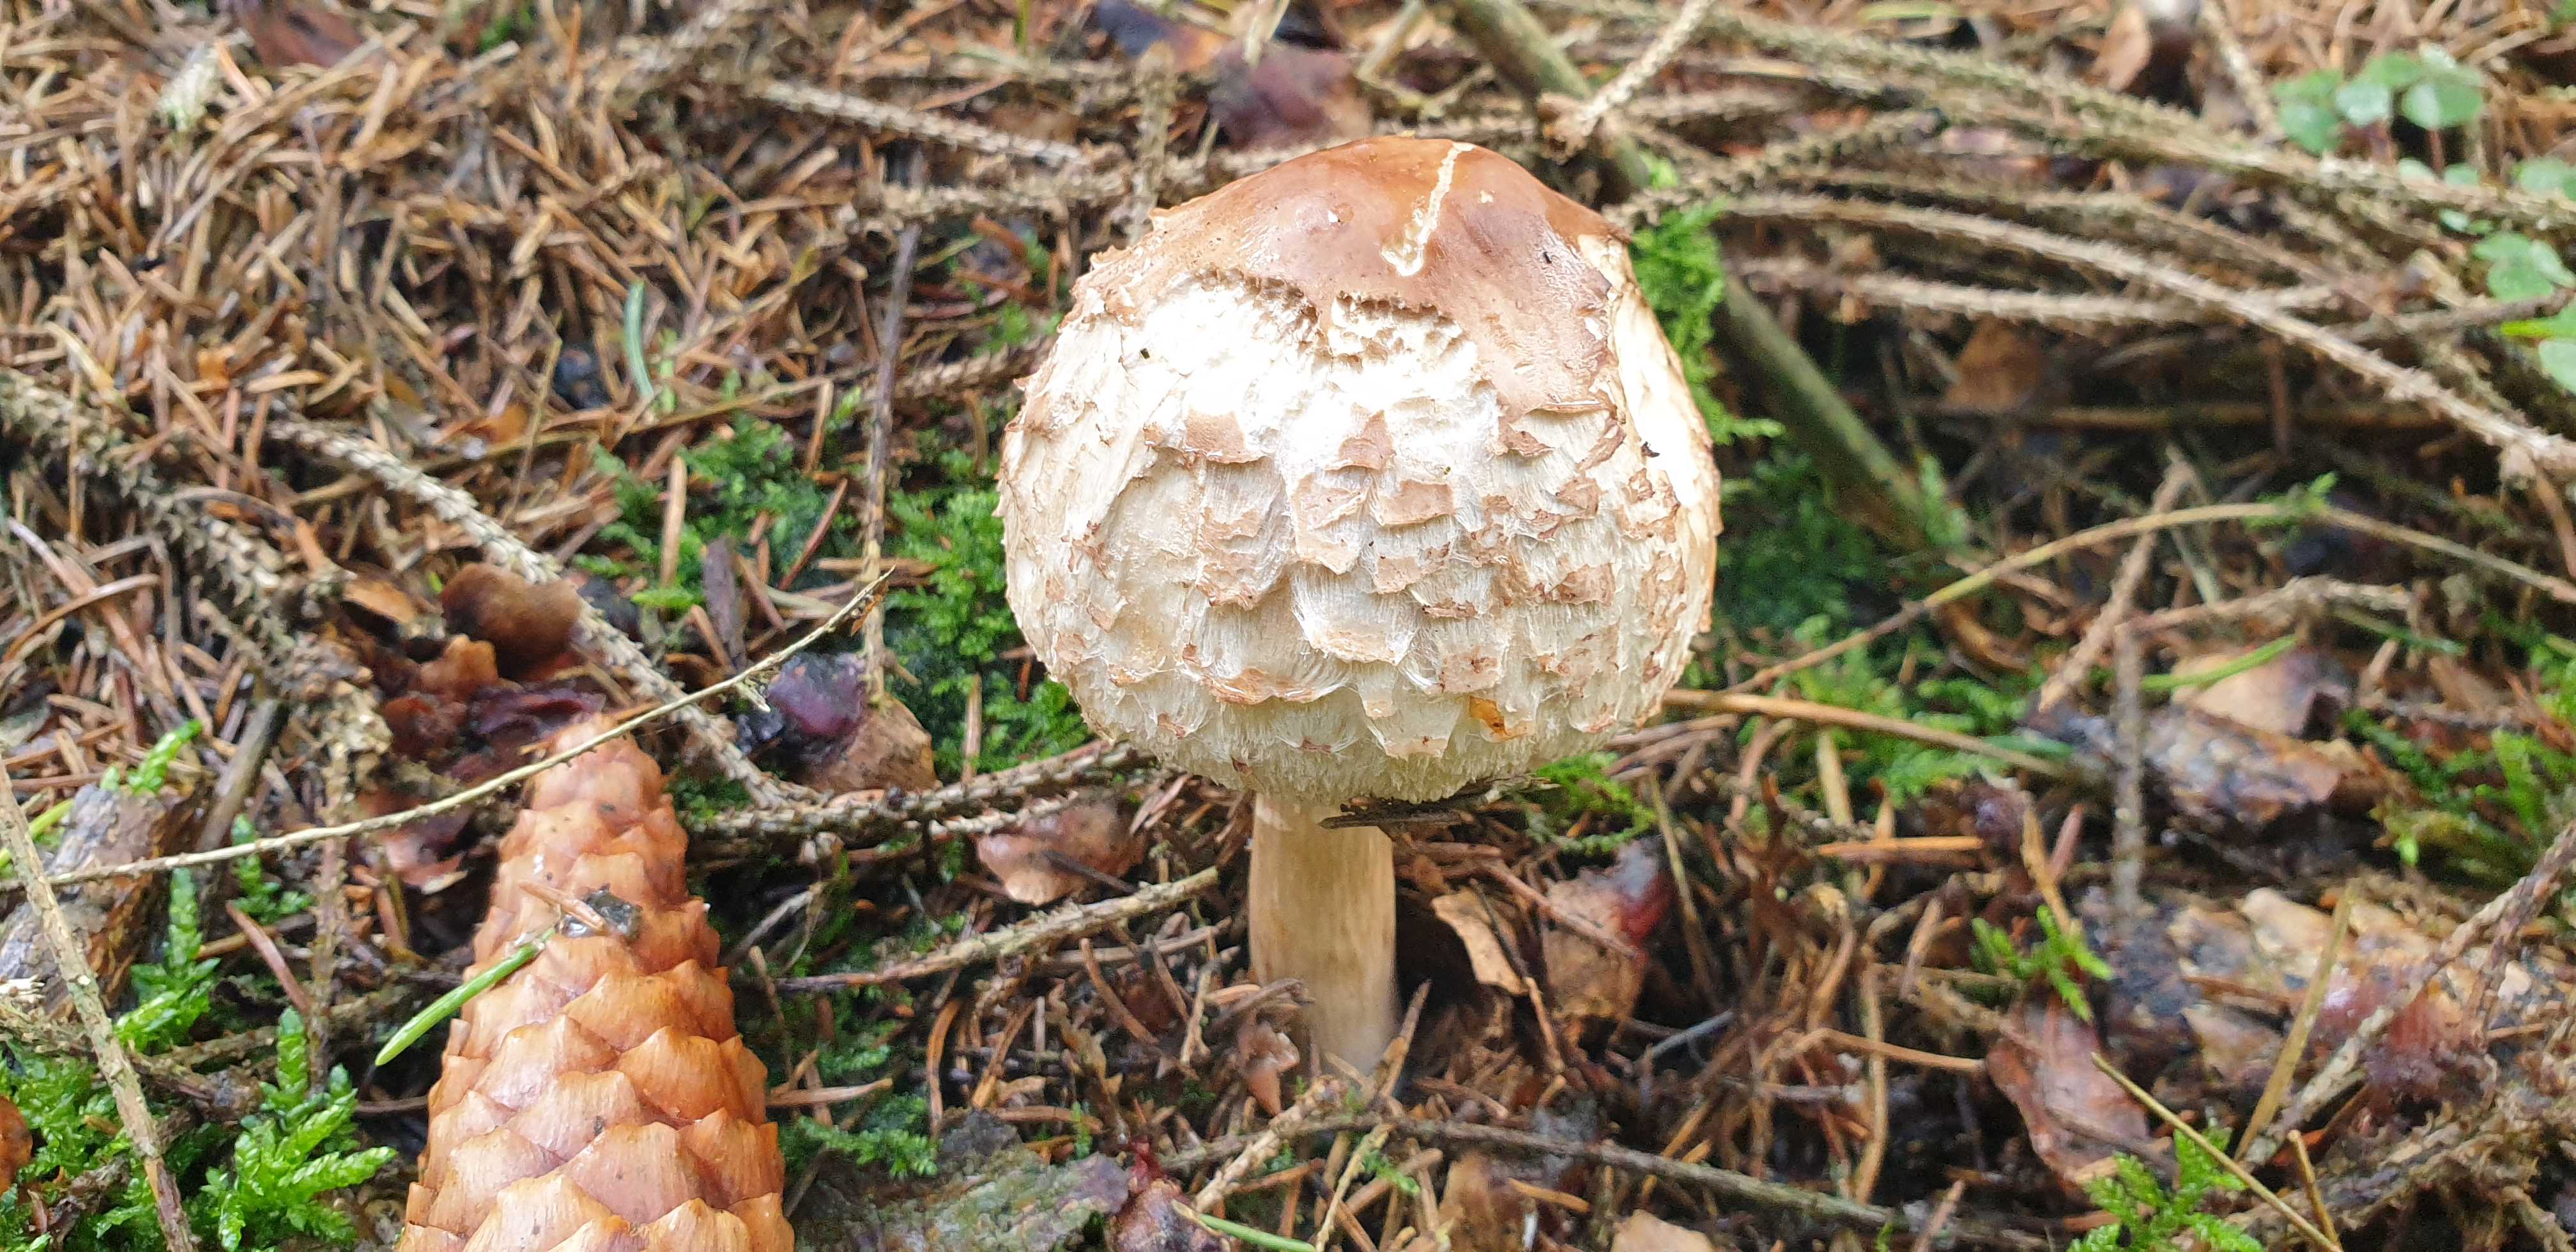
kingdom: Fungi
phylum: Basidiomycota
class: Agaricomycetes
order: Agaricales
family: Agaricaceae
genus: Chlorophyllum
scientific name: Chlorophyllum olivieri
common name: almindelig rabarberhat
